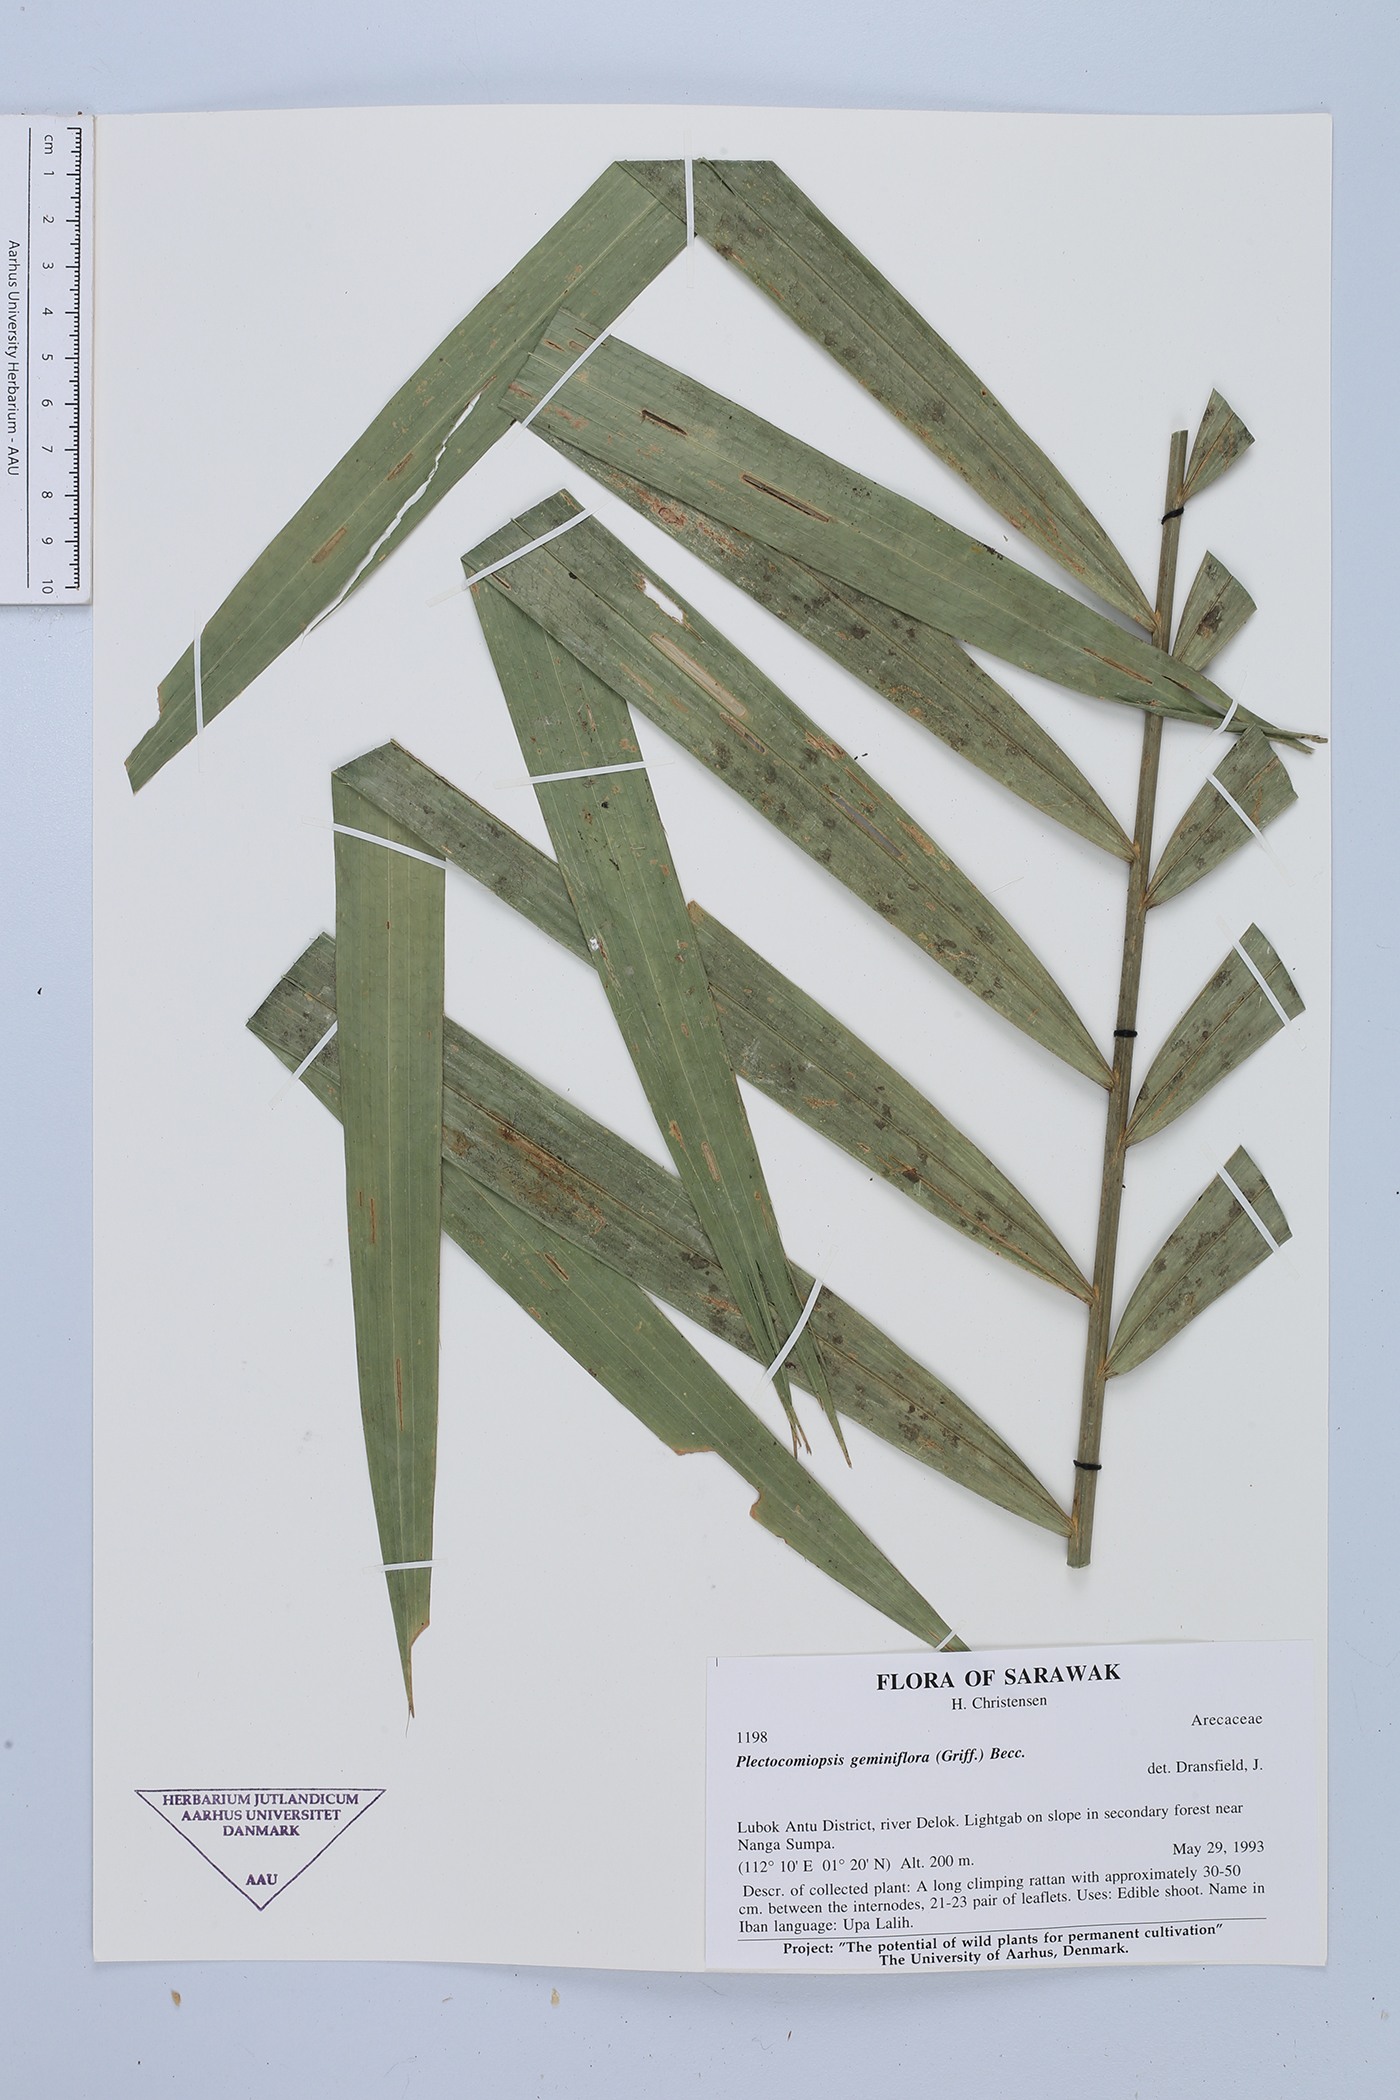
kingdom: Plantae
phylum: Tracheophyta
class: Liliopsida
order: Arecales
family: Arecaceae
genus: Plectocomiopsis
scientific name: Plectocomiopsis geminiflora
